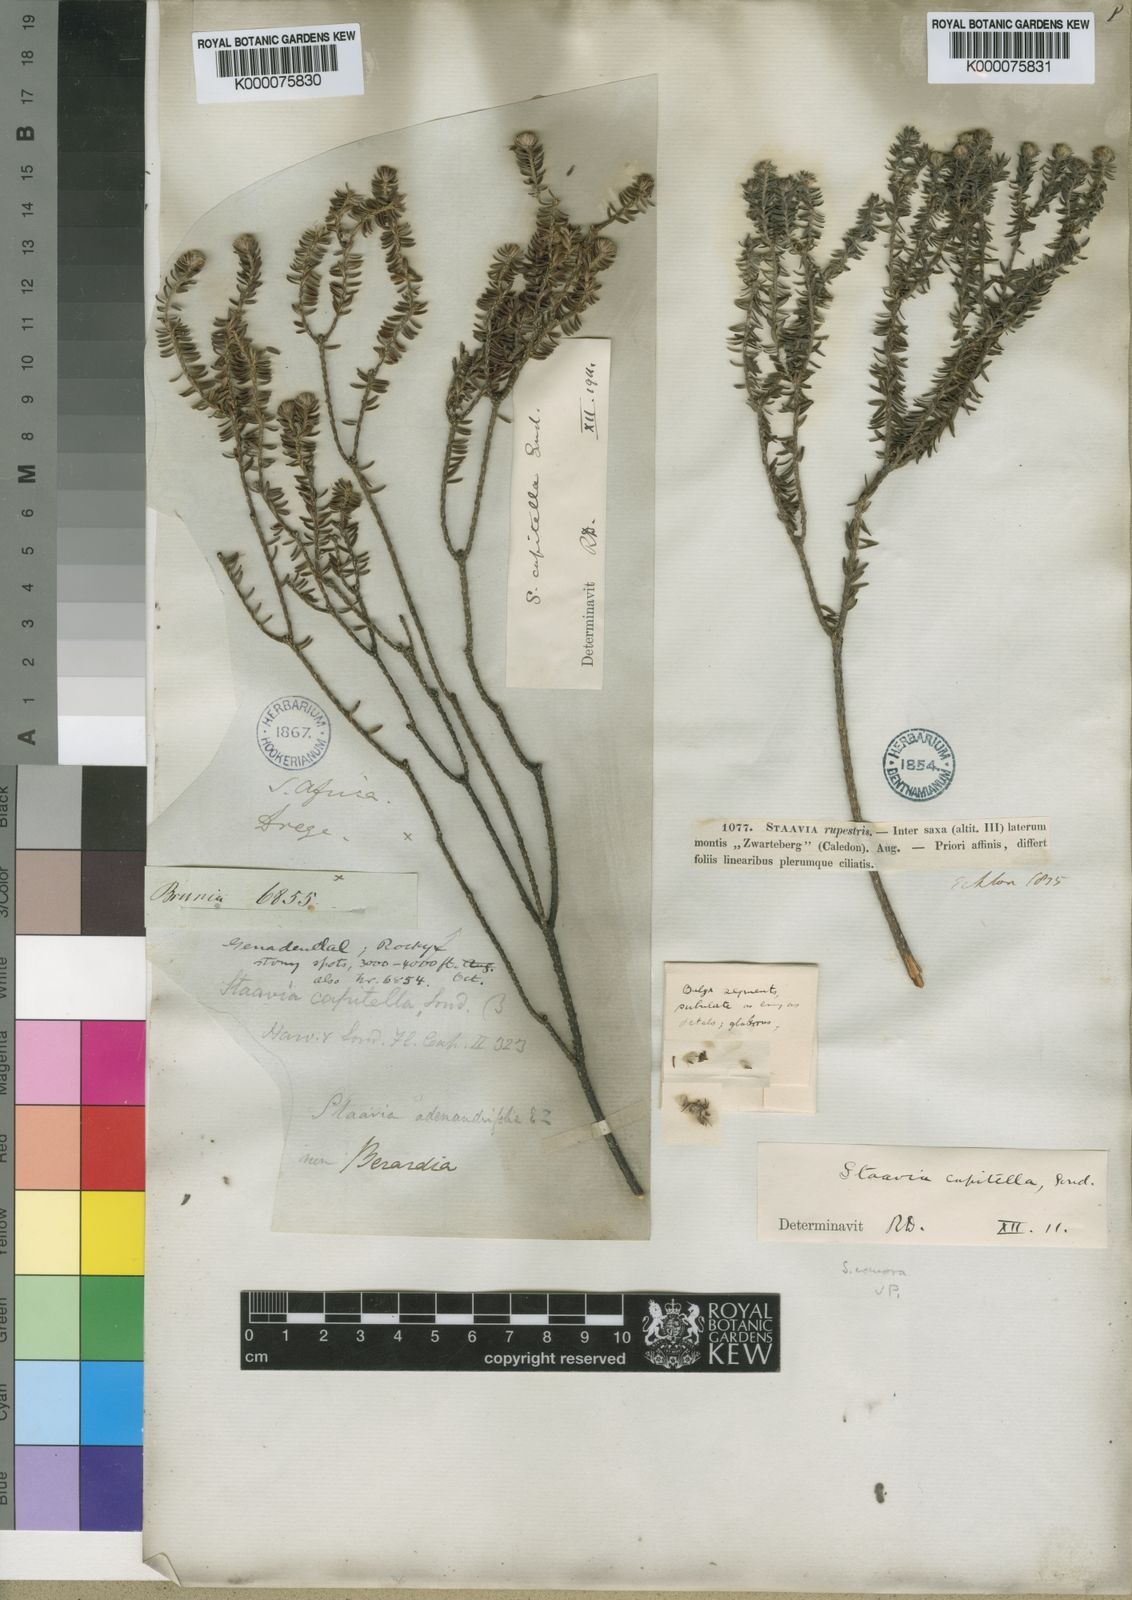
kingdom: Plantae
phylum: Tracheophyta
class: Magnoliopsida
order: Bruniales
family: Bruniaceae
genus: Staavia
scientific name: Staavia capitella
